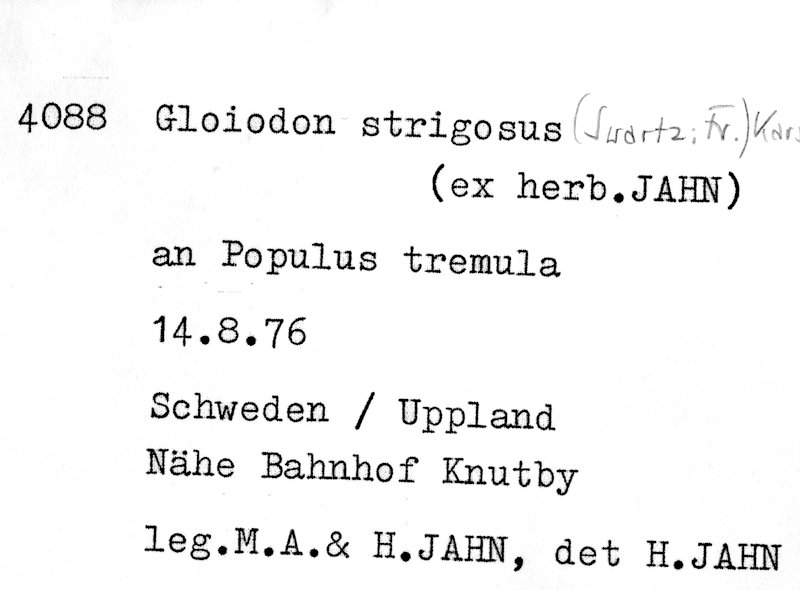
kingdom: Plantae
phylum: Tracheophyta
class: Magnoliopsida
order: Malpighiales
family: Salicaceae
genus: Populus
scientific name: Populus tremula
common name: European aspen
